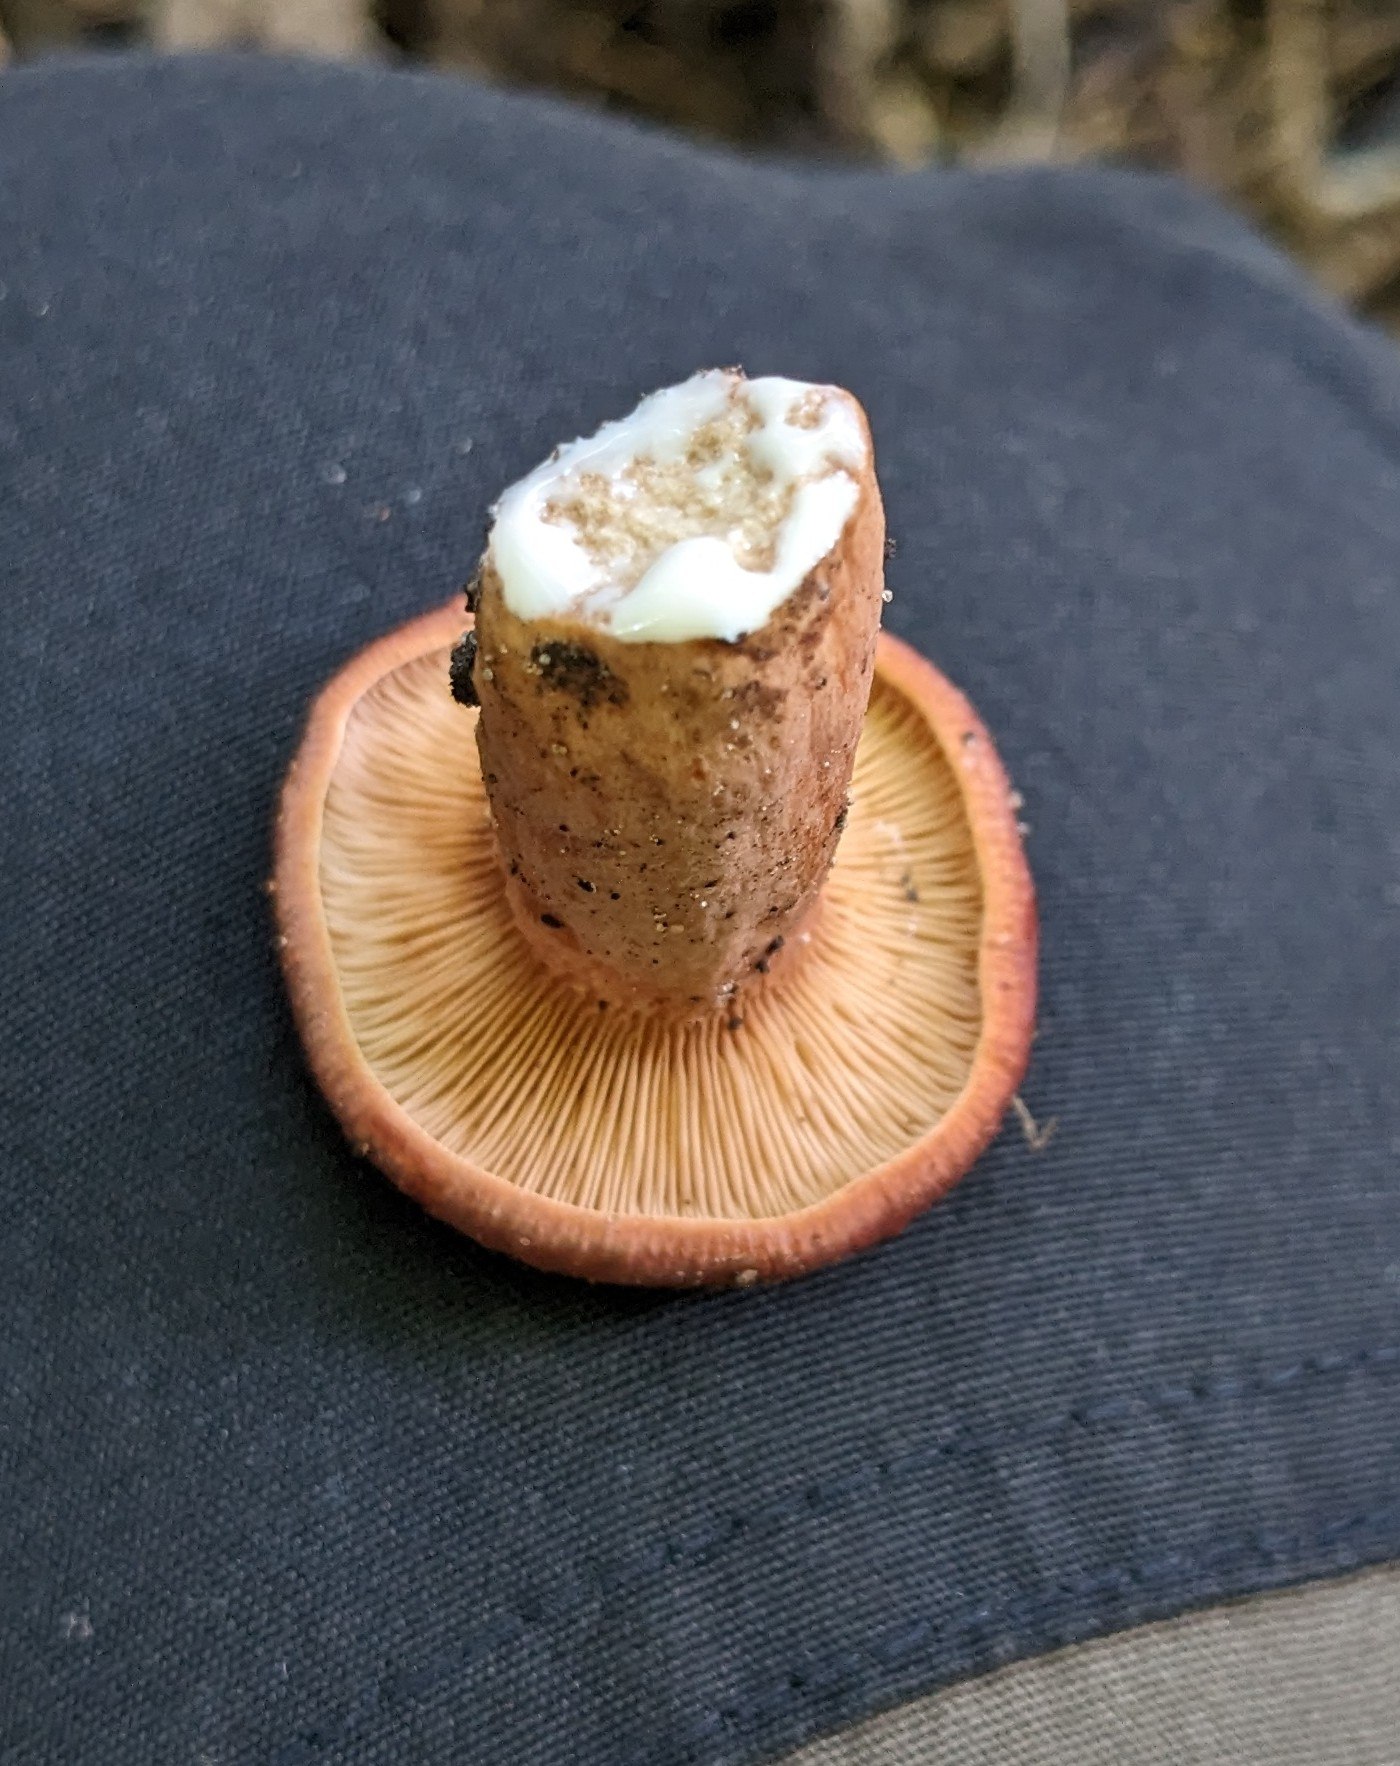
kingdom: Fungi
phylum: Basidiomycota
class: Agaricomycetes
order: Russulales
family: Russulaceae
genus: Lactarius
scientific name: Lactarius
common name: mælkehat
